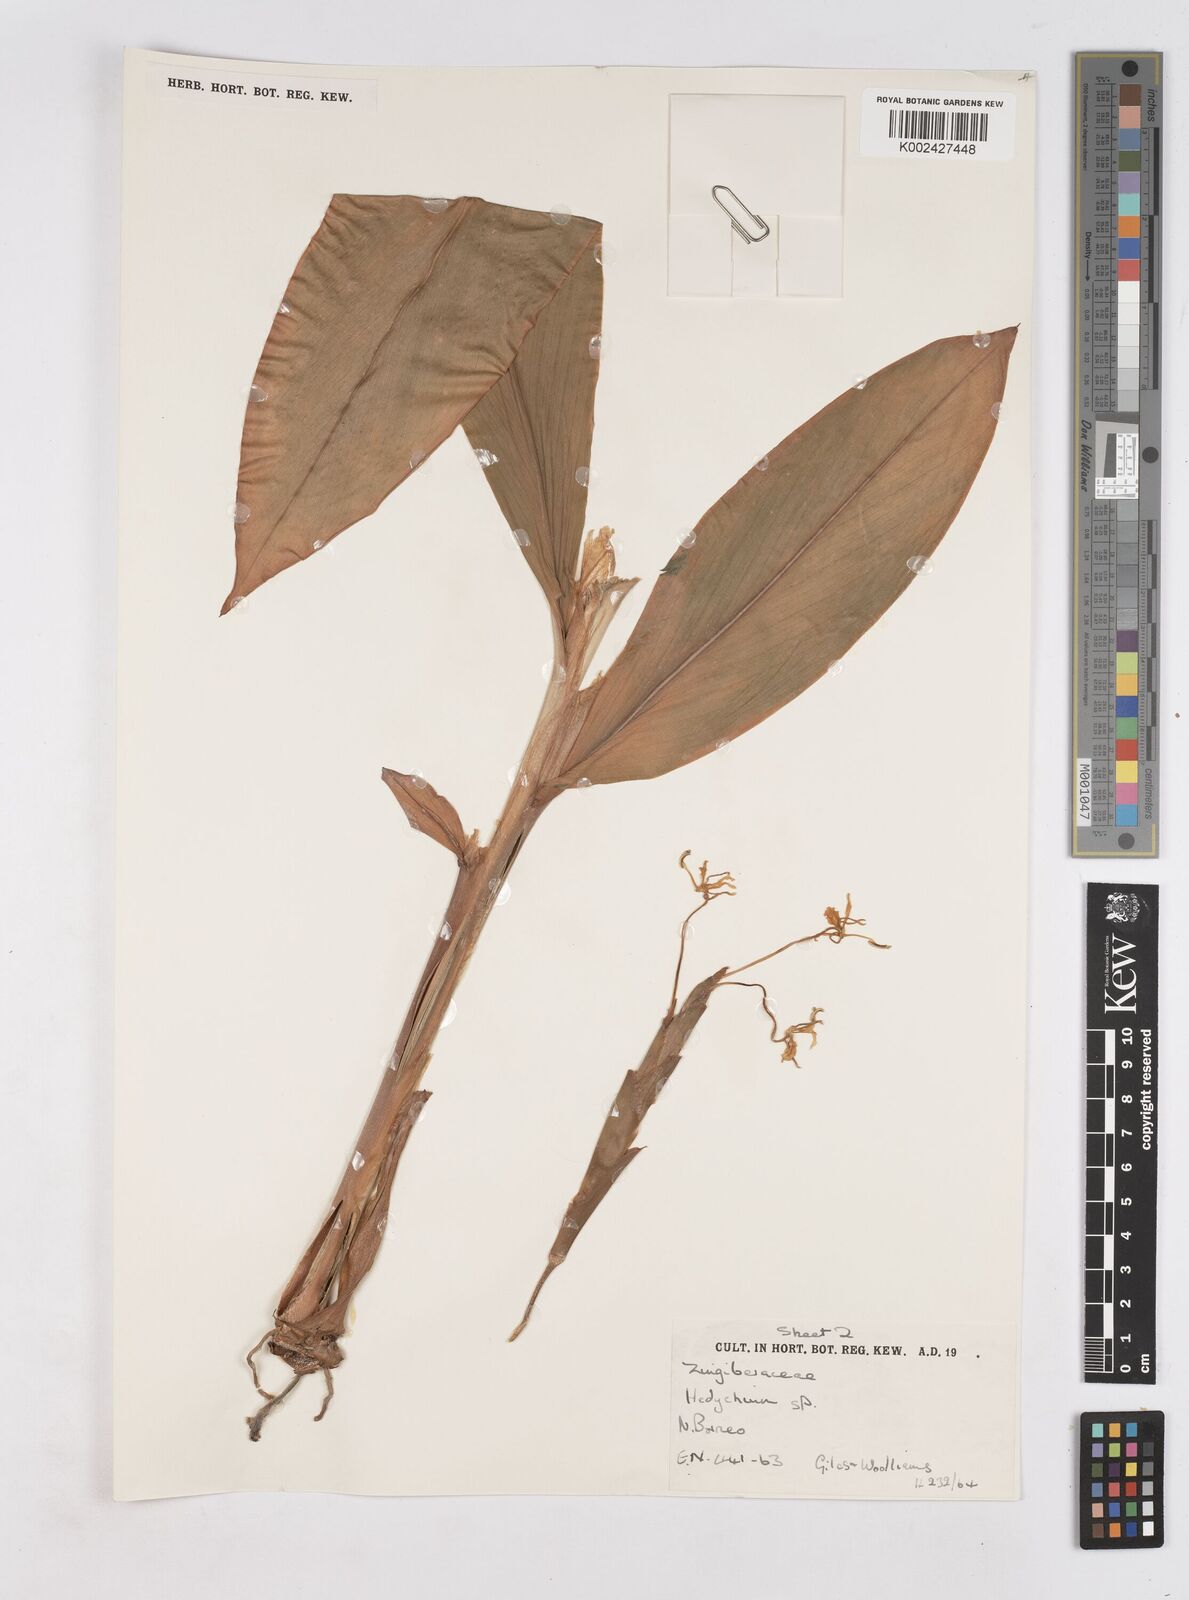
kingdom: Plantae
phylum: Tracheophyta
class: Liliopsida
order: Zingiberales
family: Zingiberaceae
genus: Hedychium
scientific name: Hedychium
